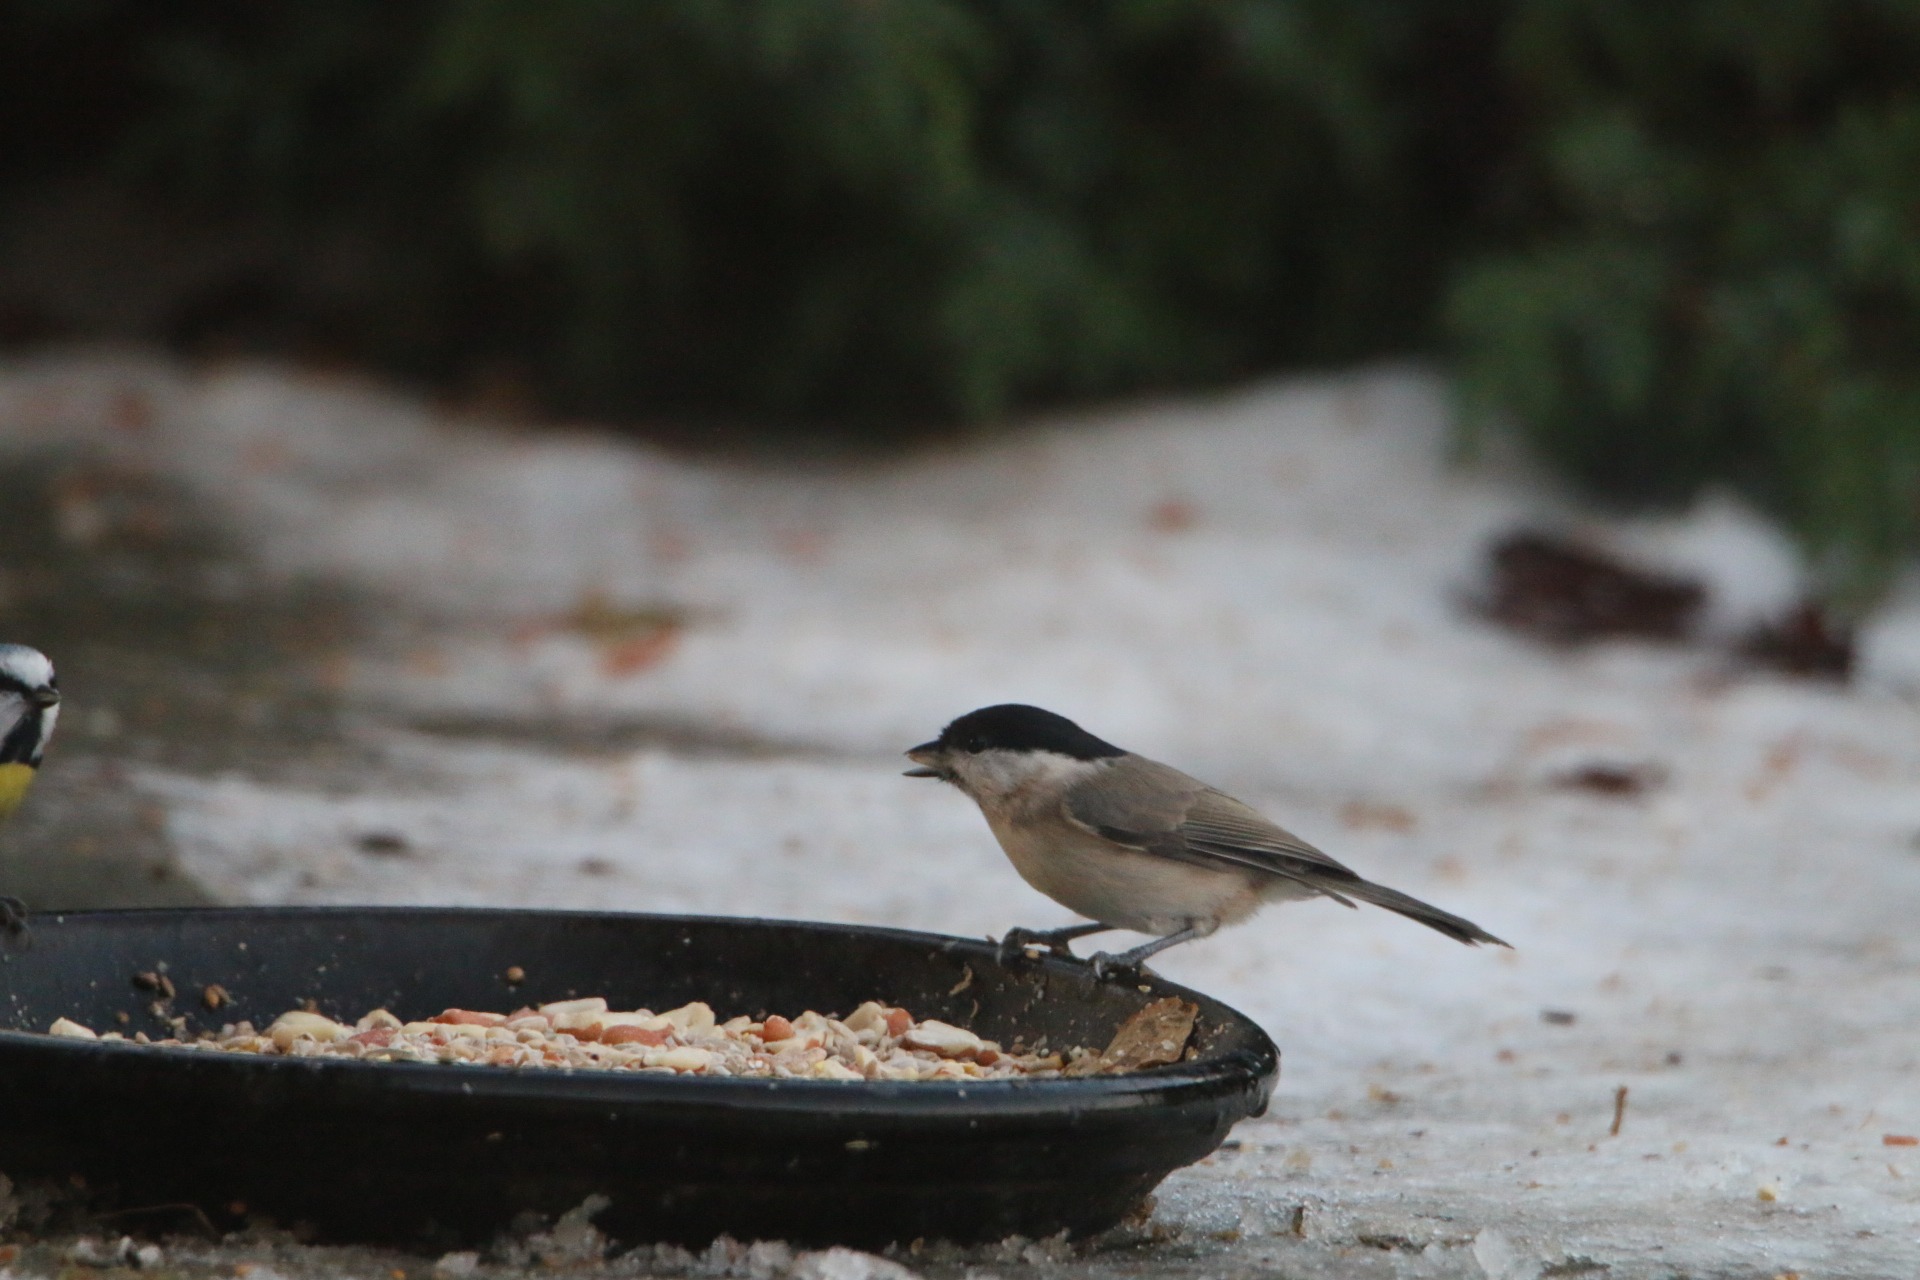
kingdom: Animalia
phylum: Chordata
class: Aves
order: Passeriformes
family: Paridae
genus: Poecile
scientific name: Poecile palustris
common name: Sumpmejse
